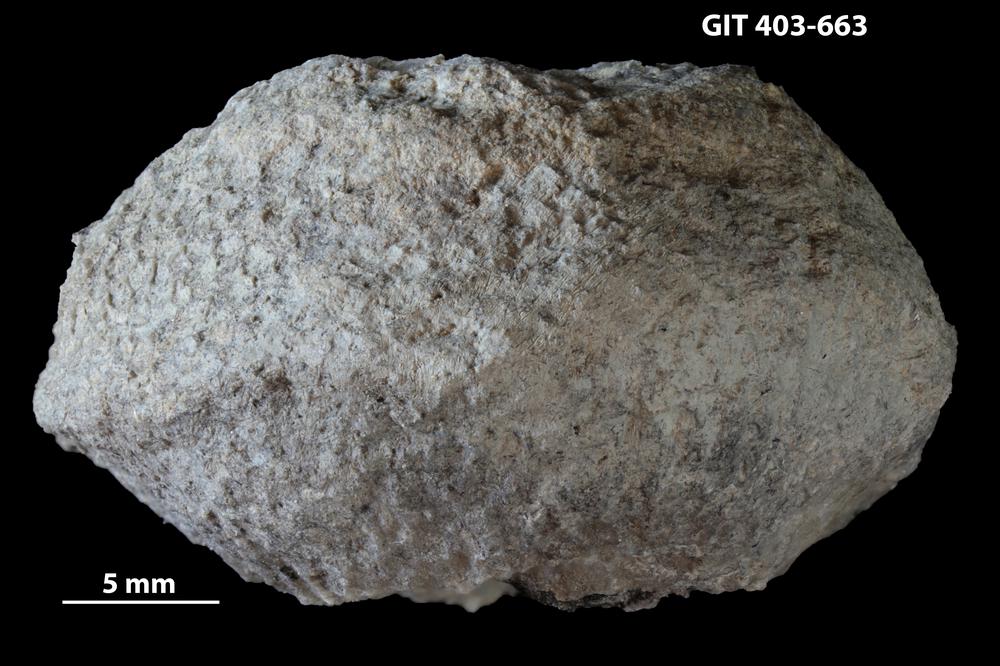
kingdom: Animalia
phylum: Cnidaria
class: Anthozoa
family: Favositidae
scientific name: Favositidae
